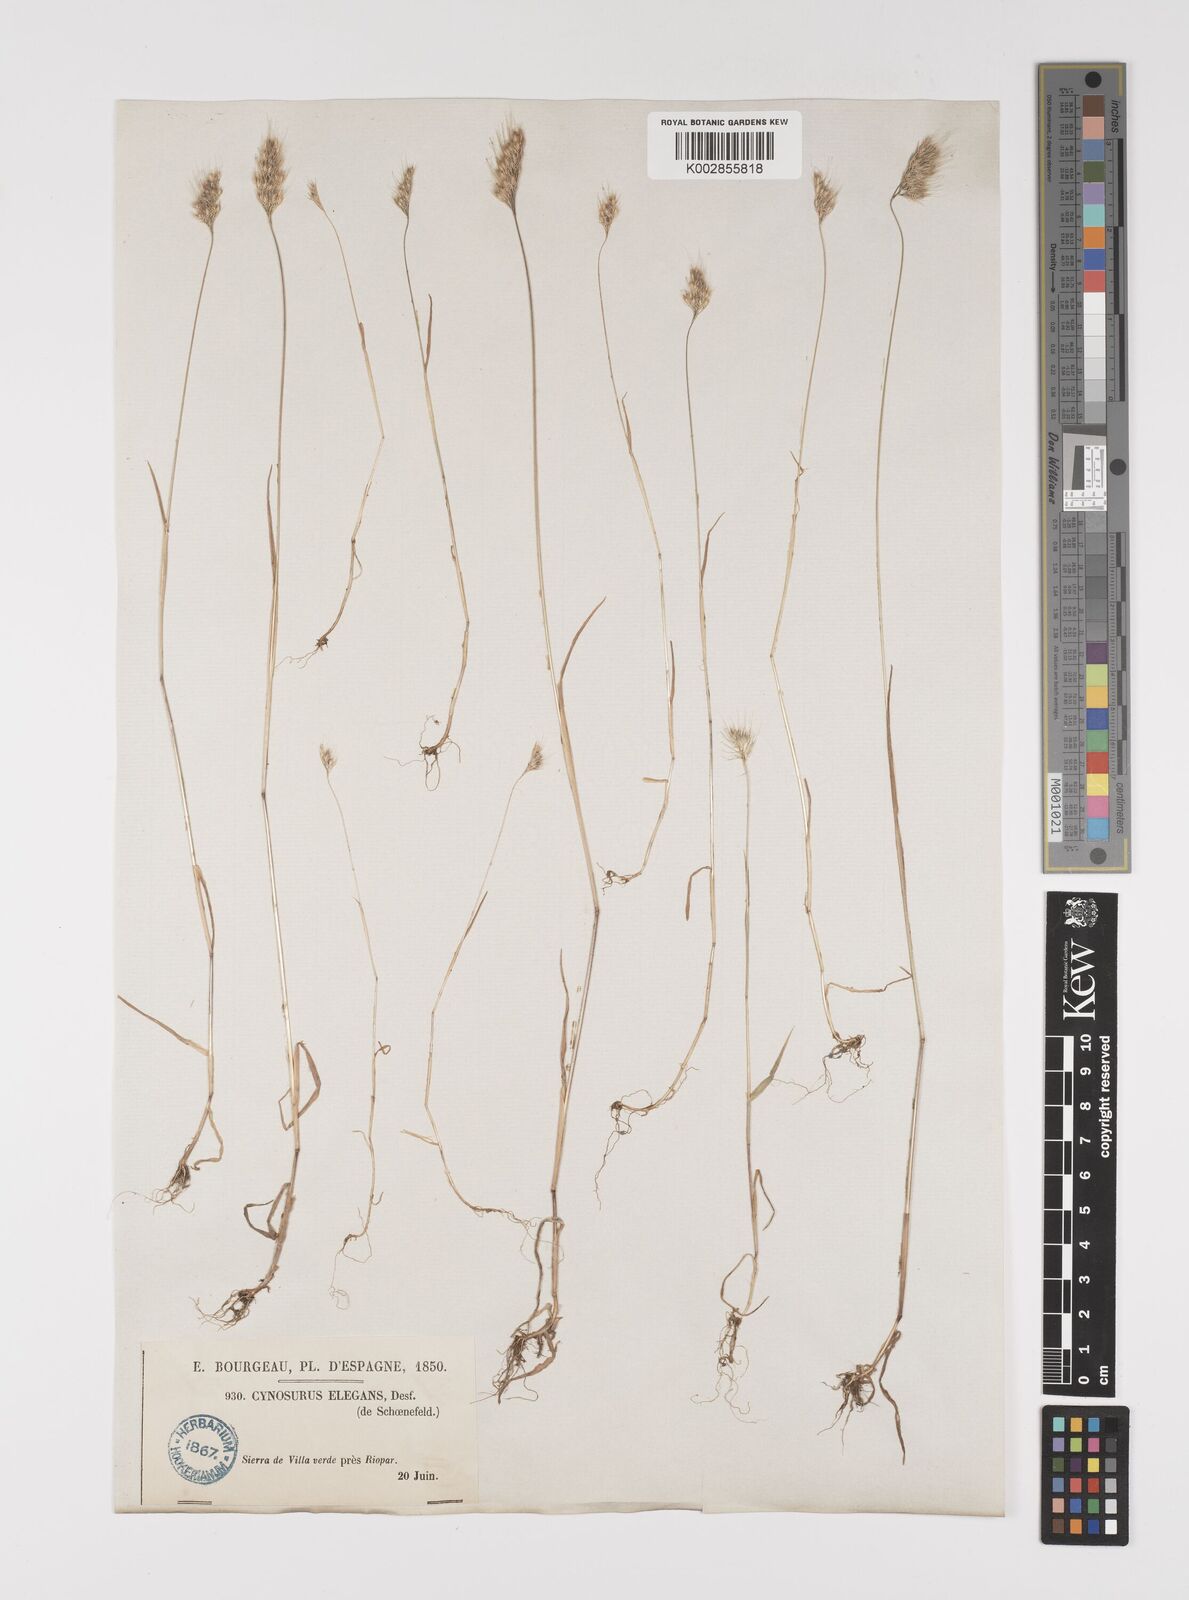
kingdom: Plantae
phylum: Tracheophyta
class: Liliopsida
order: Poales
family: Poaceae
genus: Cynosurus
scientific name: Cynosurus elegans
